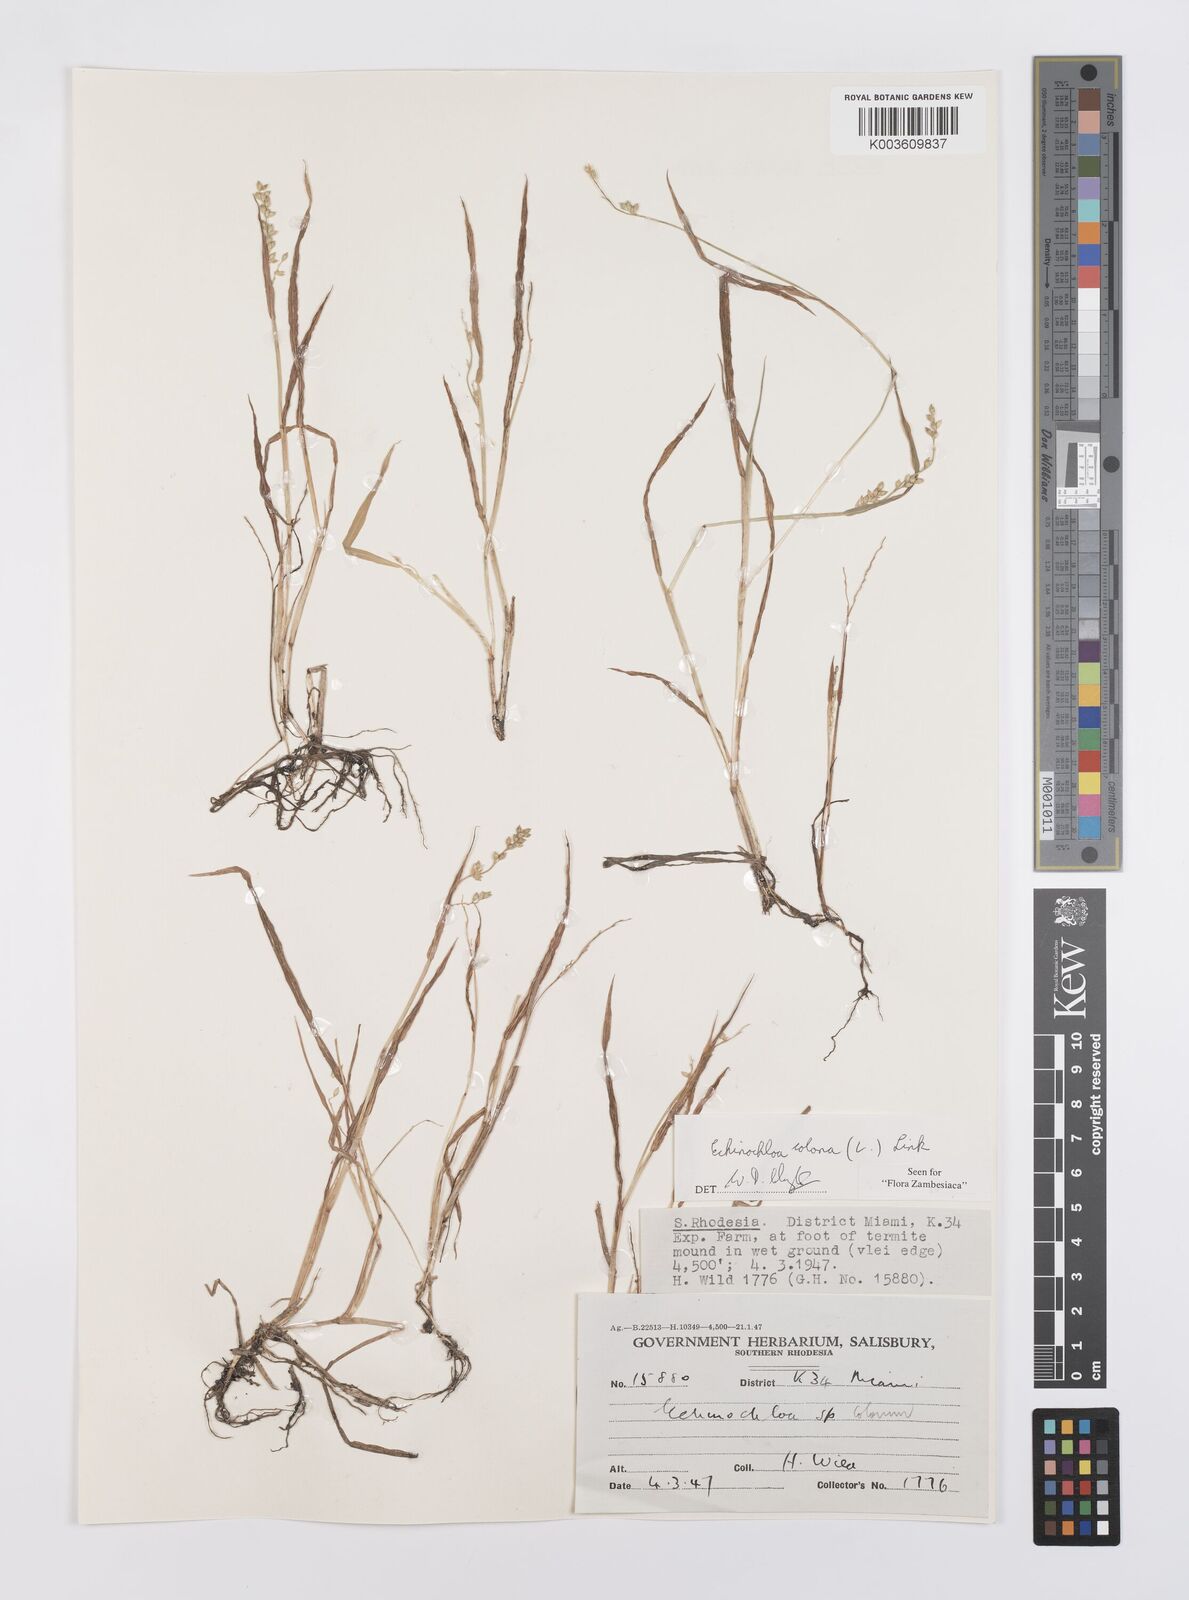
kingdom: Plantae
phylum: Tracheophyta
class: Liliopsida
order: Poales
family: Poaceae
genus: Echinochloa
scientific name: Echinochloa colonum
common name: Jungle rice
